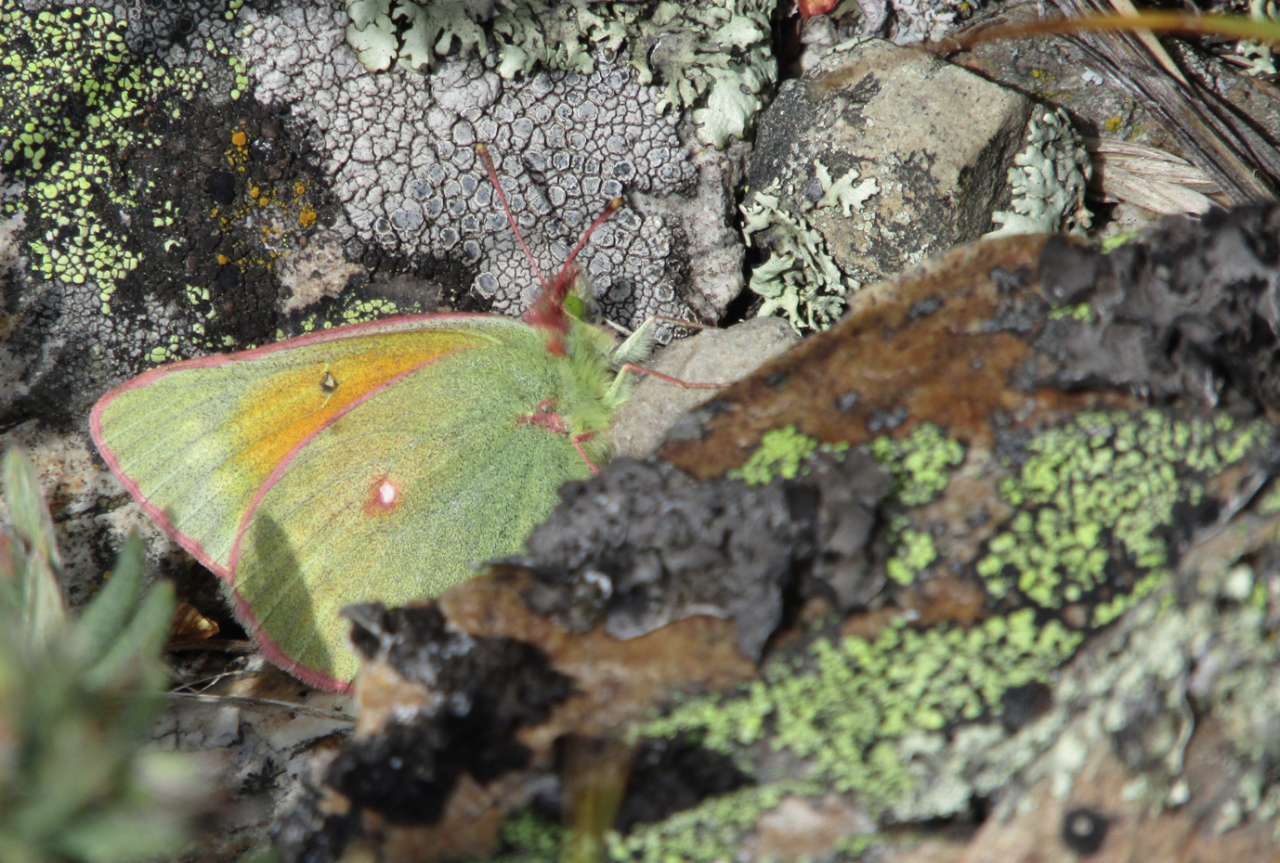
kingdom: Animalia
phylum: Arthropoda
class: Insecta
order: Lepidoptera
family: Pieridae
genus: Colias
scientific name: Colias meadii
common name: Mead's Sulphur
